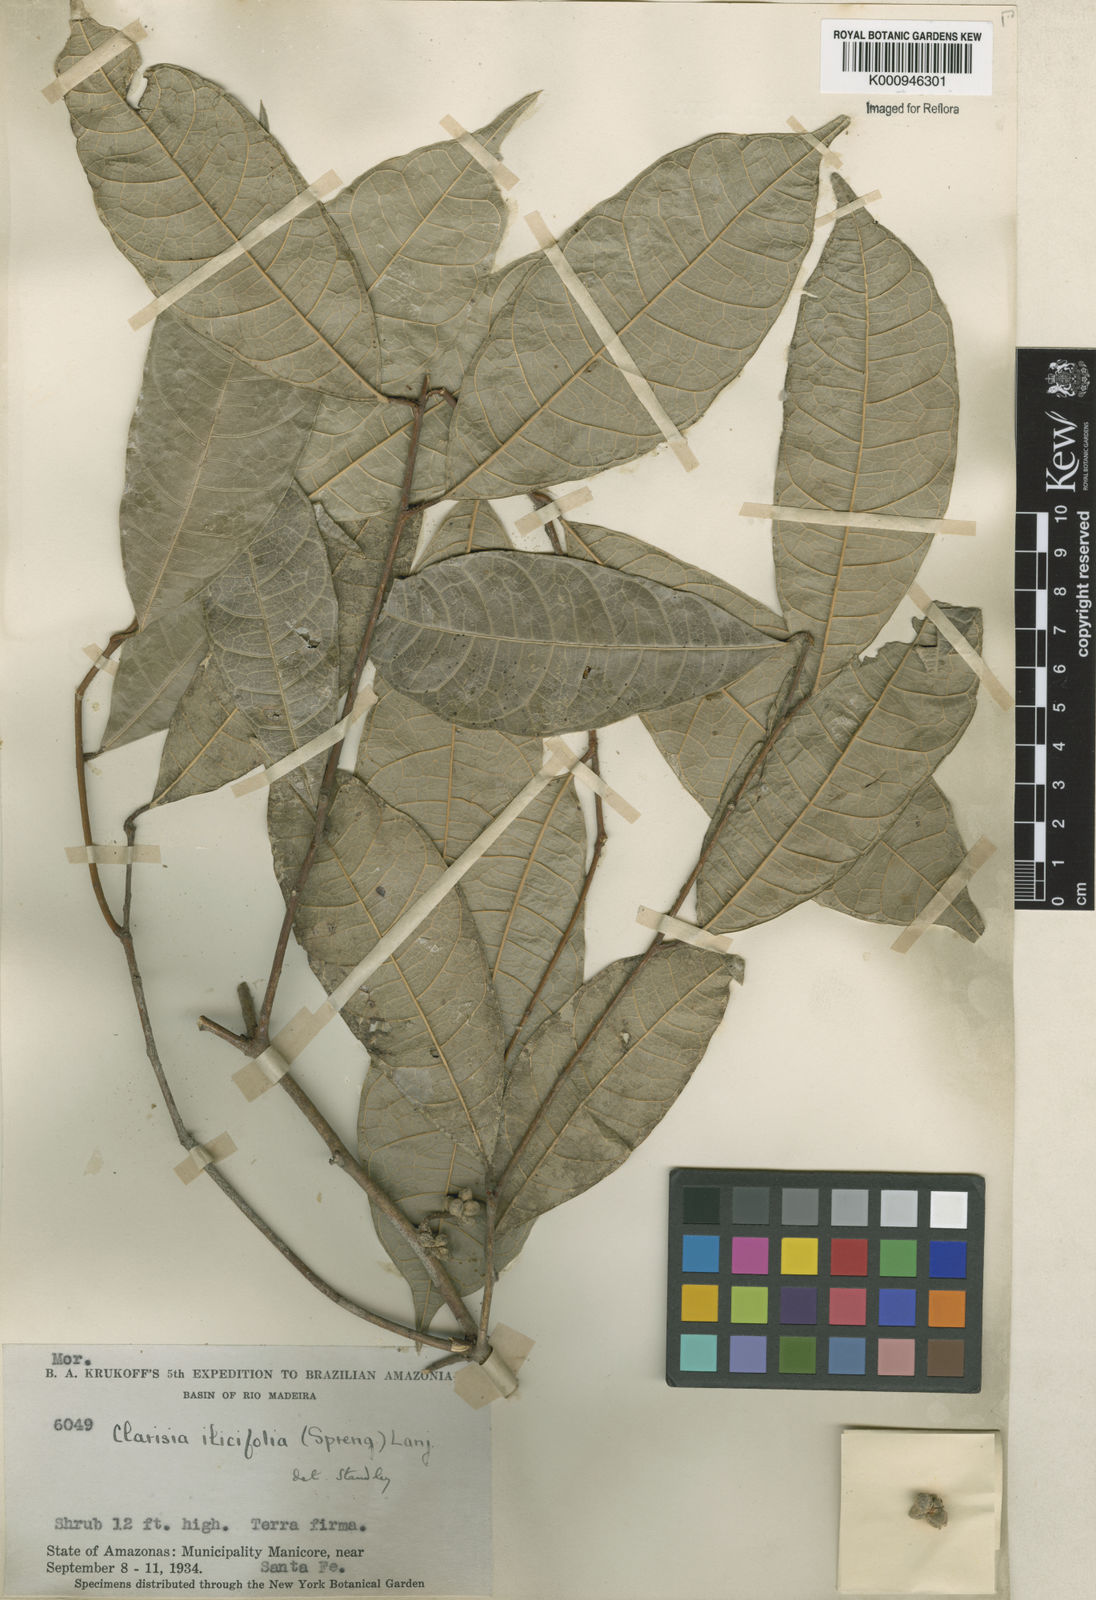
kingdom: Plantae
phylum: Tracheophyta
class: Magnoliopsida
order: Rosales
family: Moraceae
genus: Clarisia
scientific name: Clarisia ilicifolia
